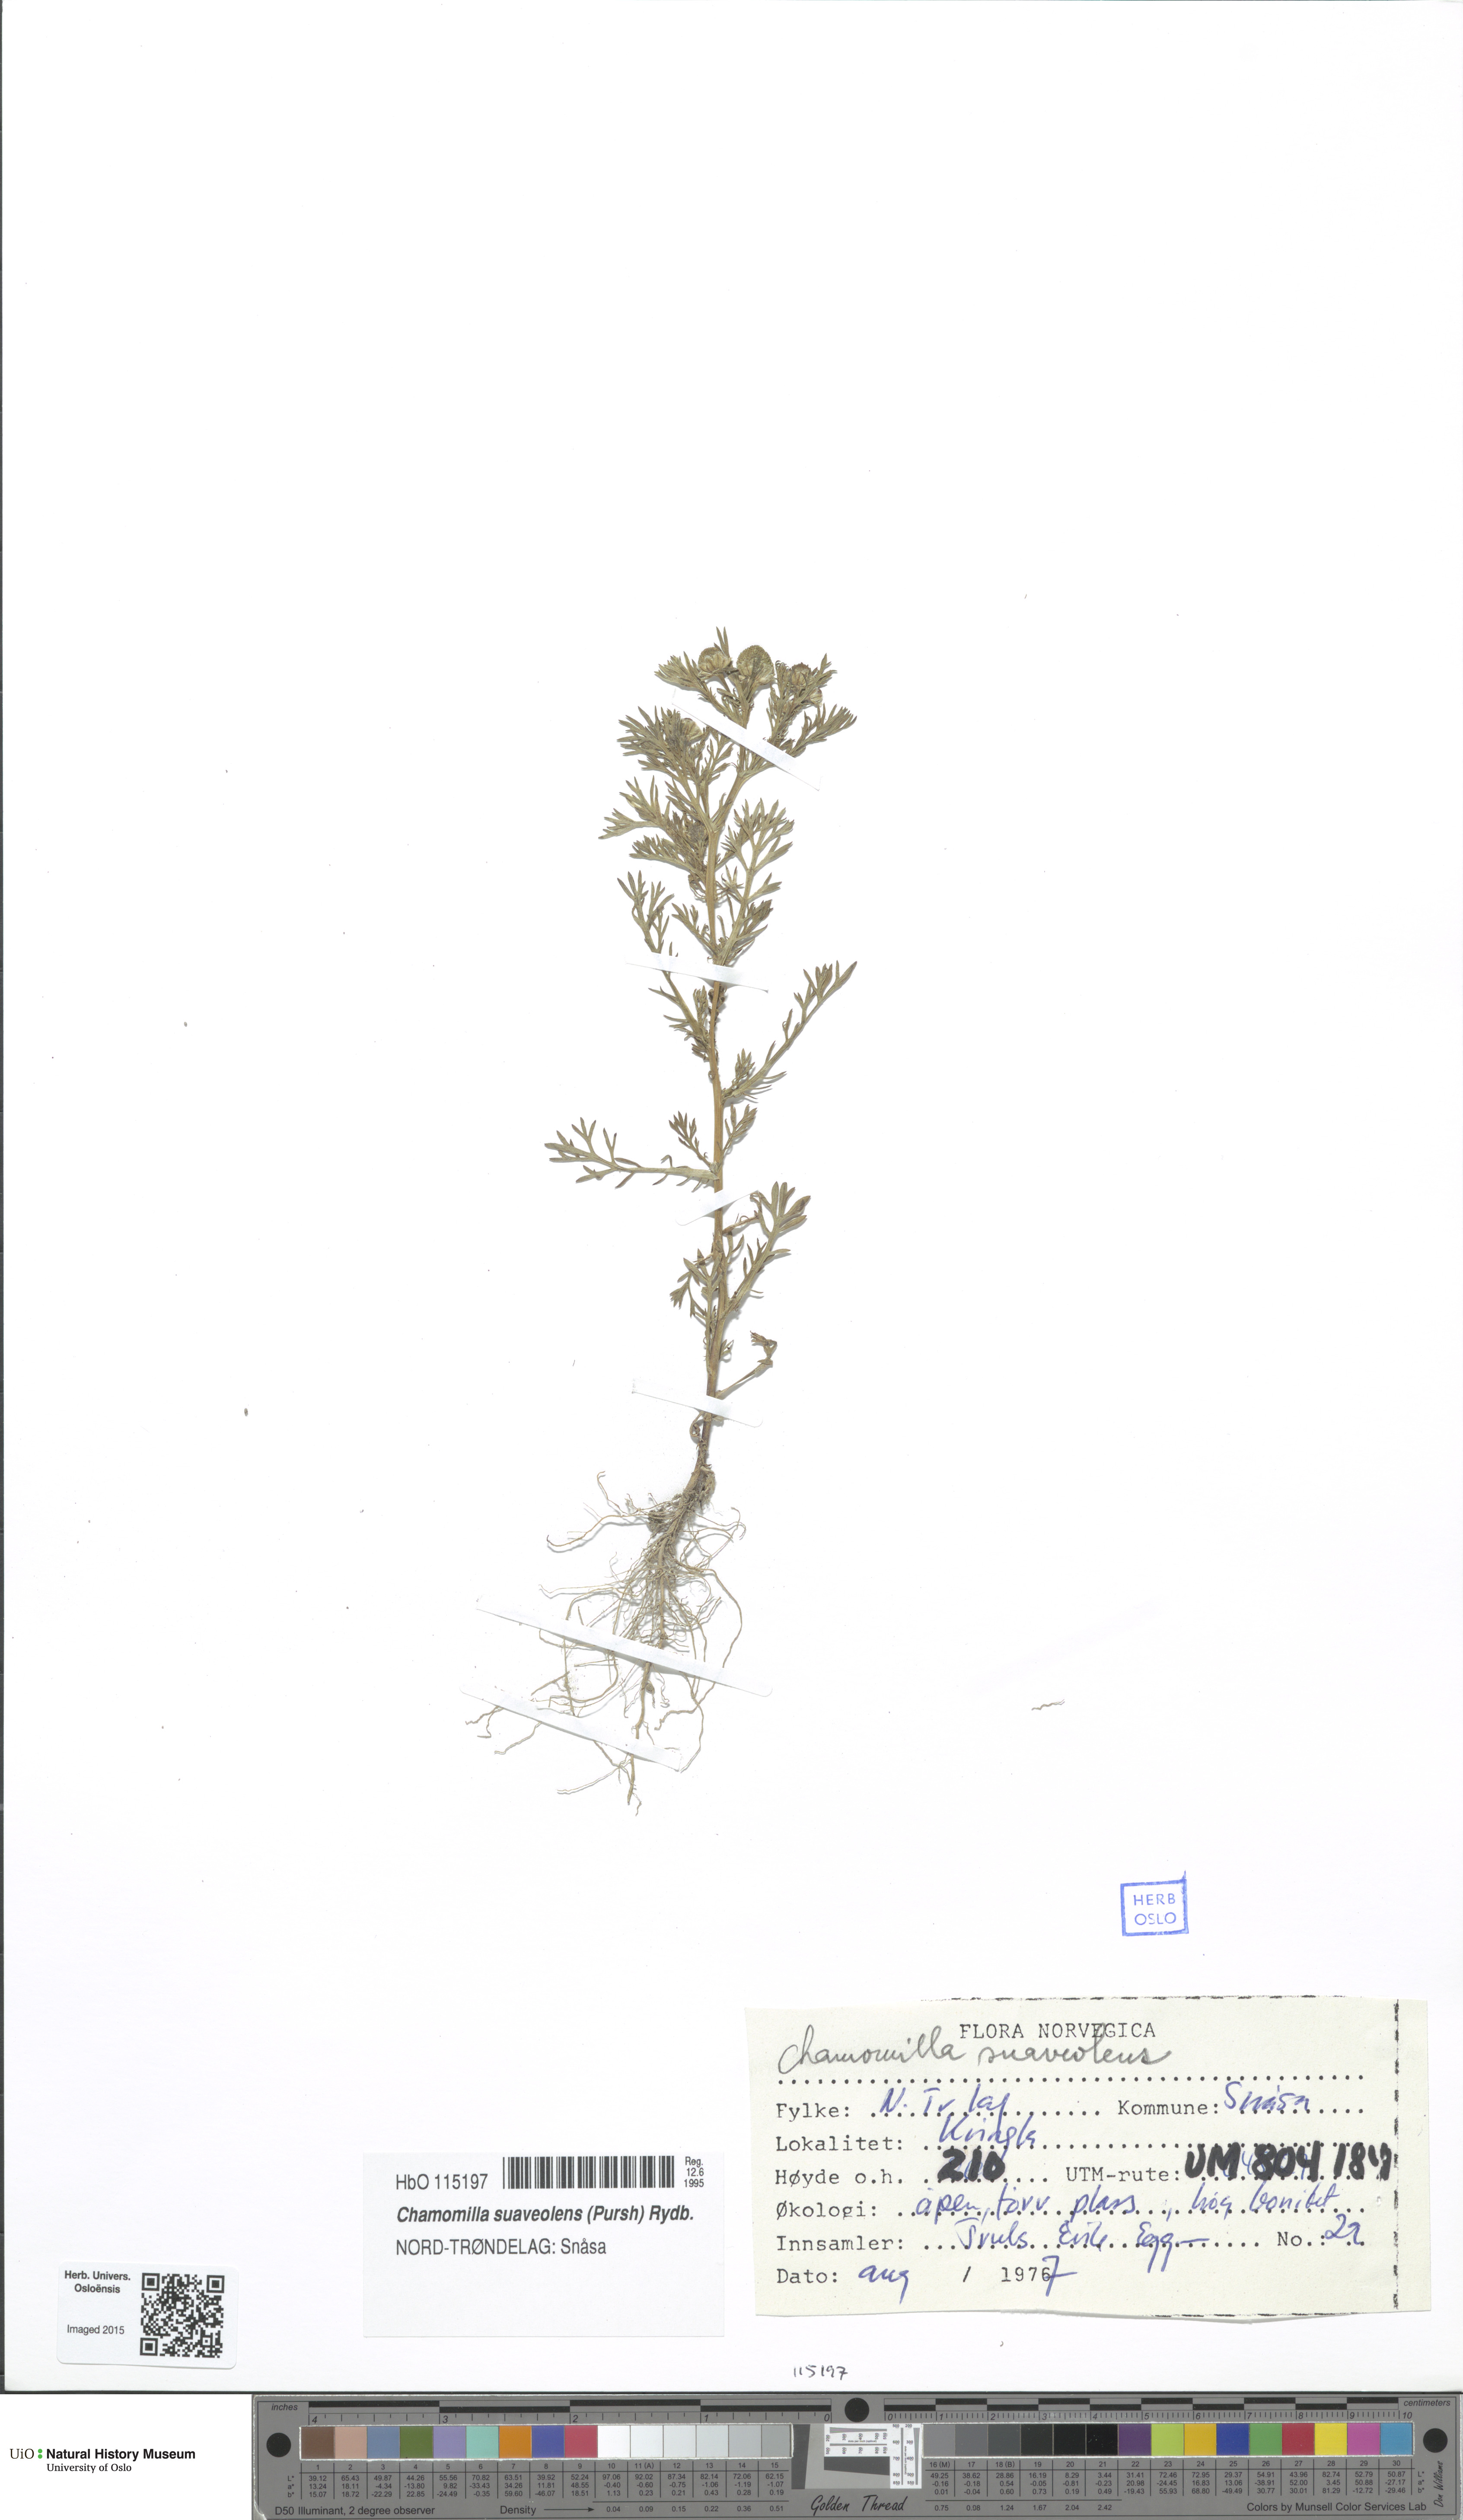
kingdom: Plantae
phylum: Tracheophyta
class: Magnoliopsida
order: Asterales
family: Asteraceae
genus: Matricaria
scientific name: Matricaria discoidea
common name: Disc mayweed
